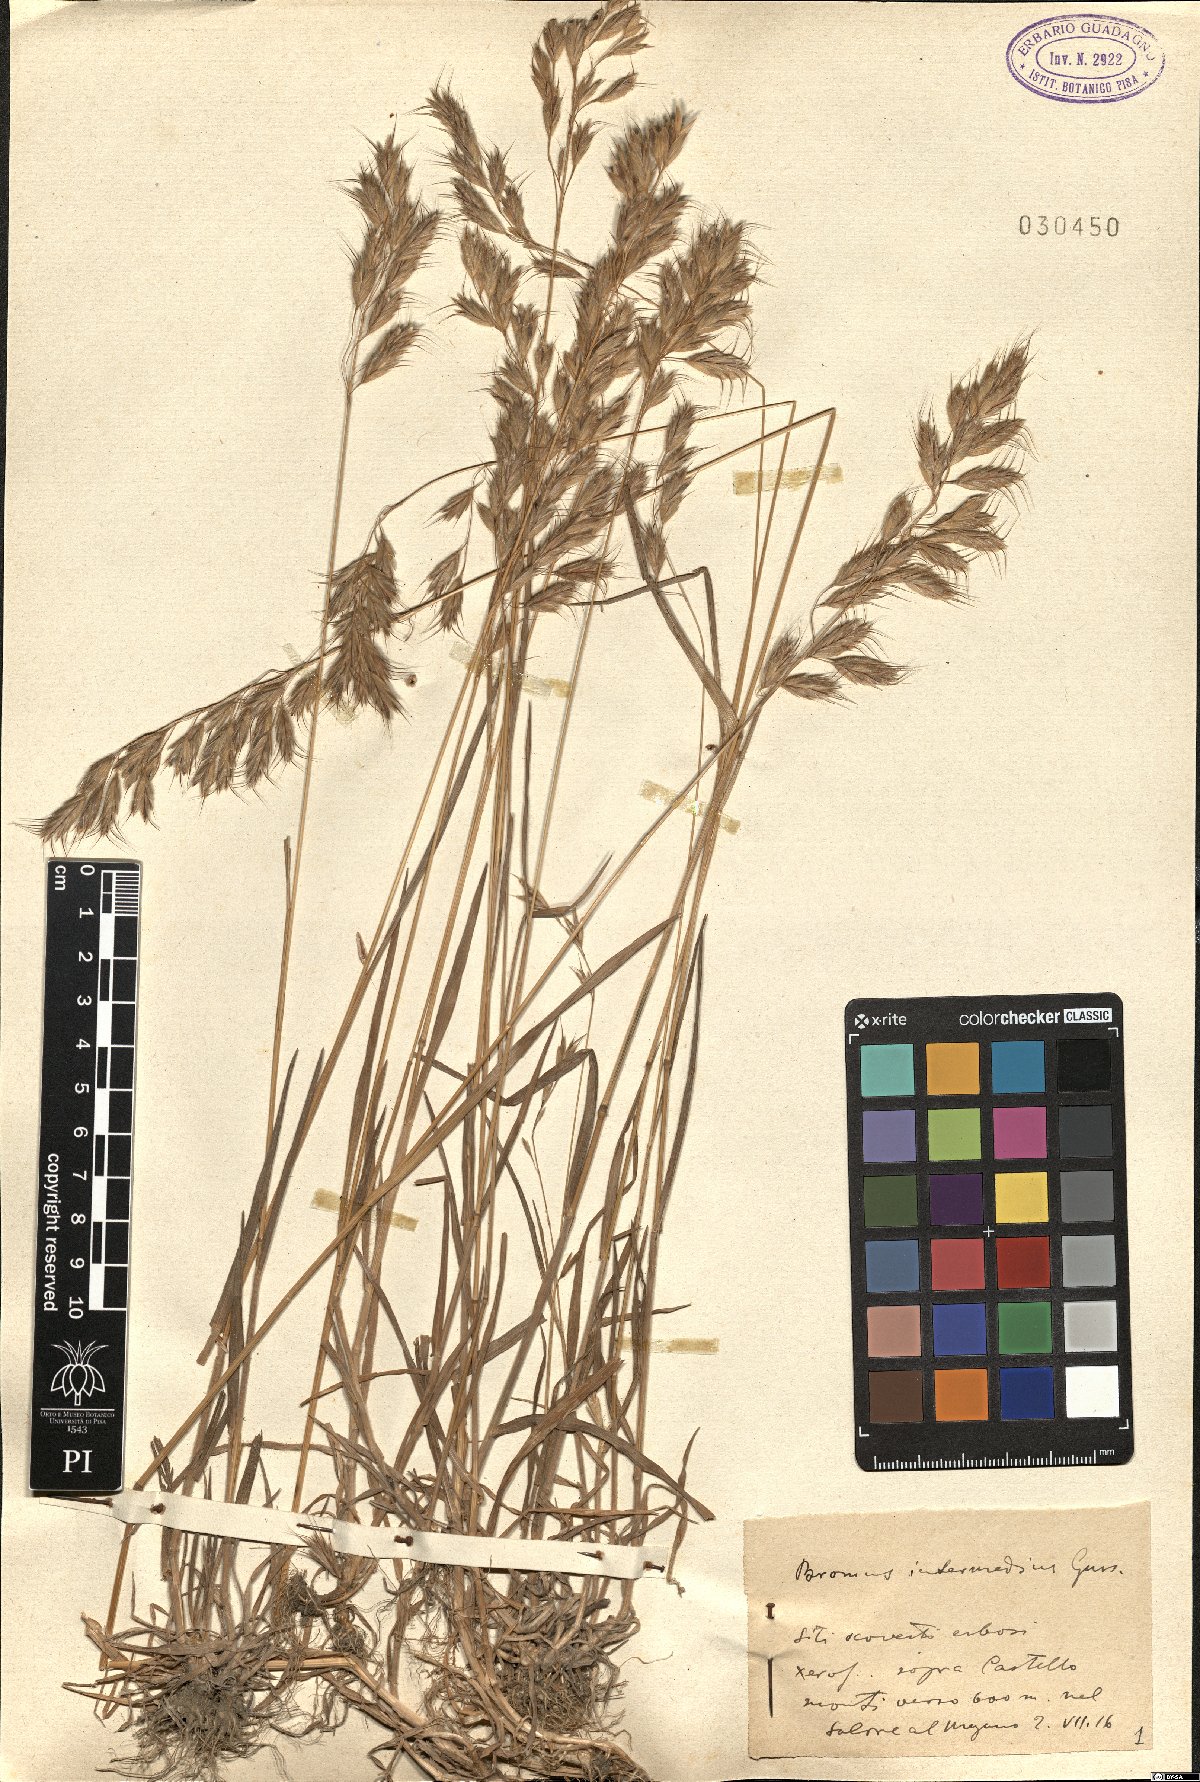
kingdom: Plantae
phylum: Tracheophyta
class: Liliopsida
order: Poales
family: Poaceae
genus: Bromus
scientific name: Bromus intermedius
